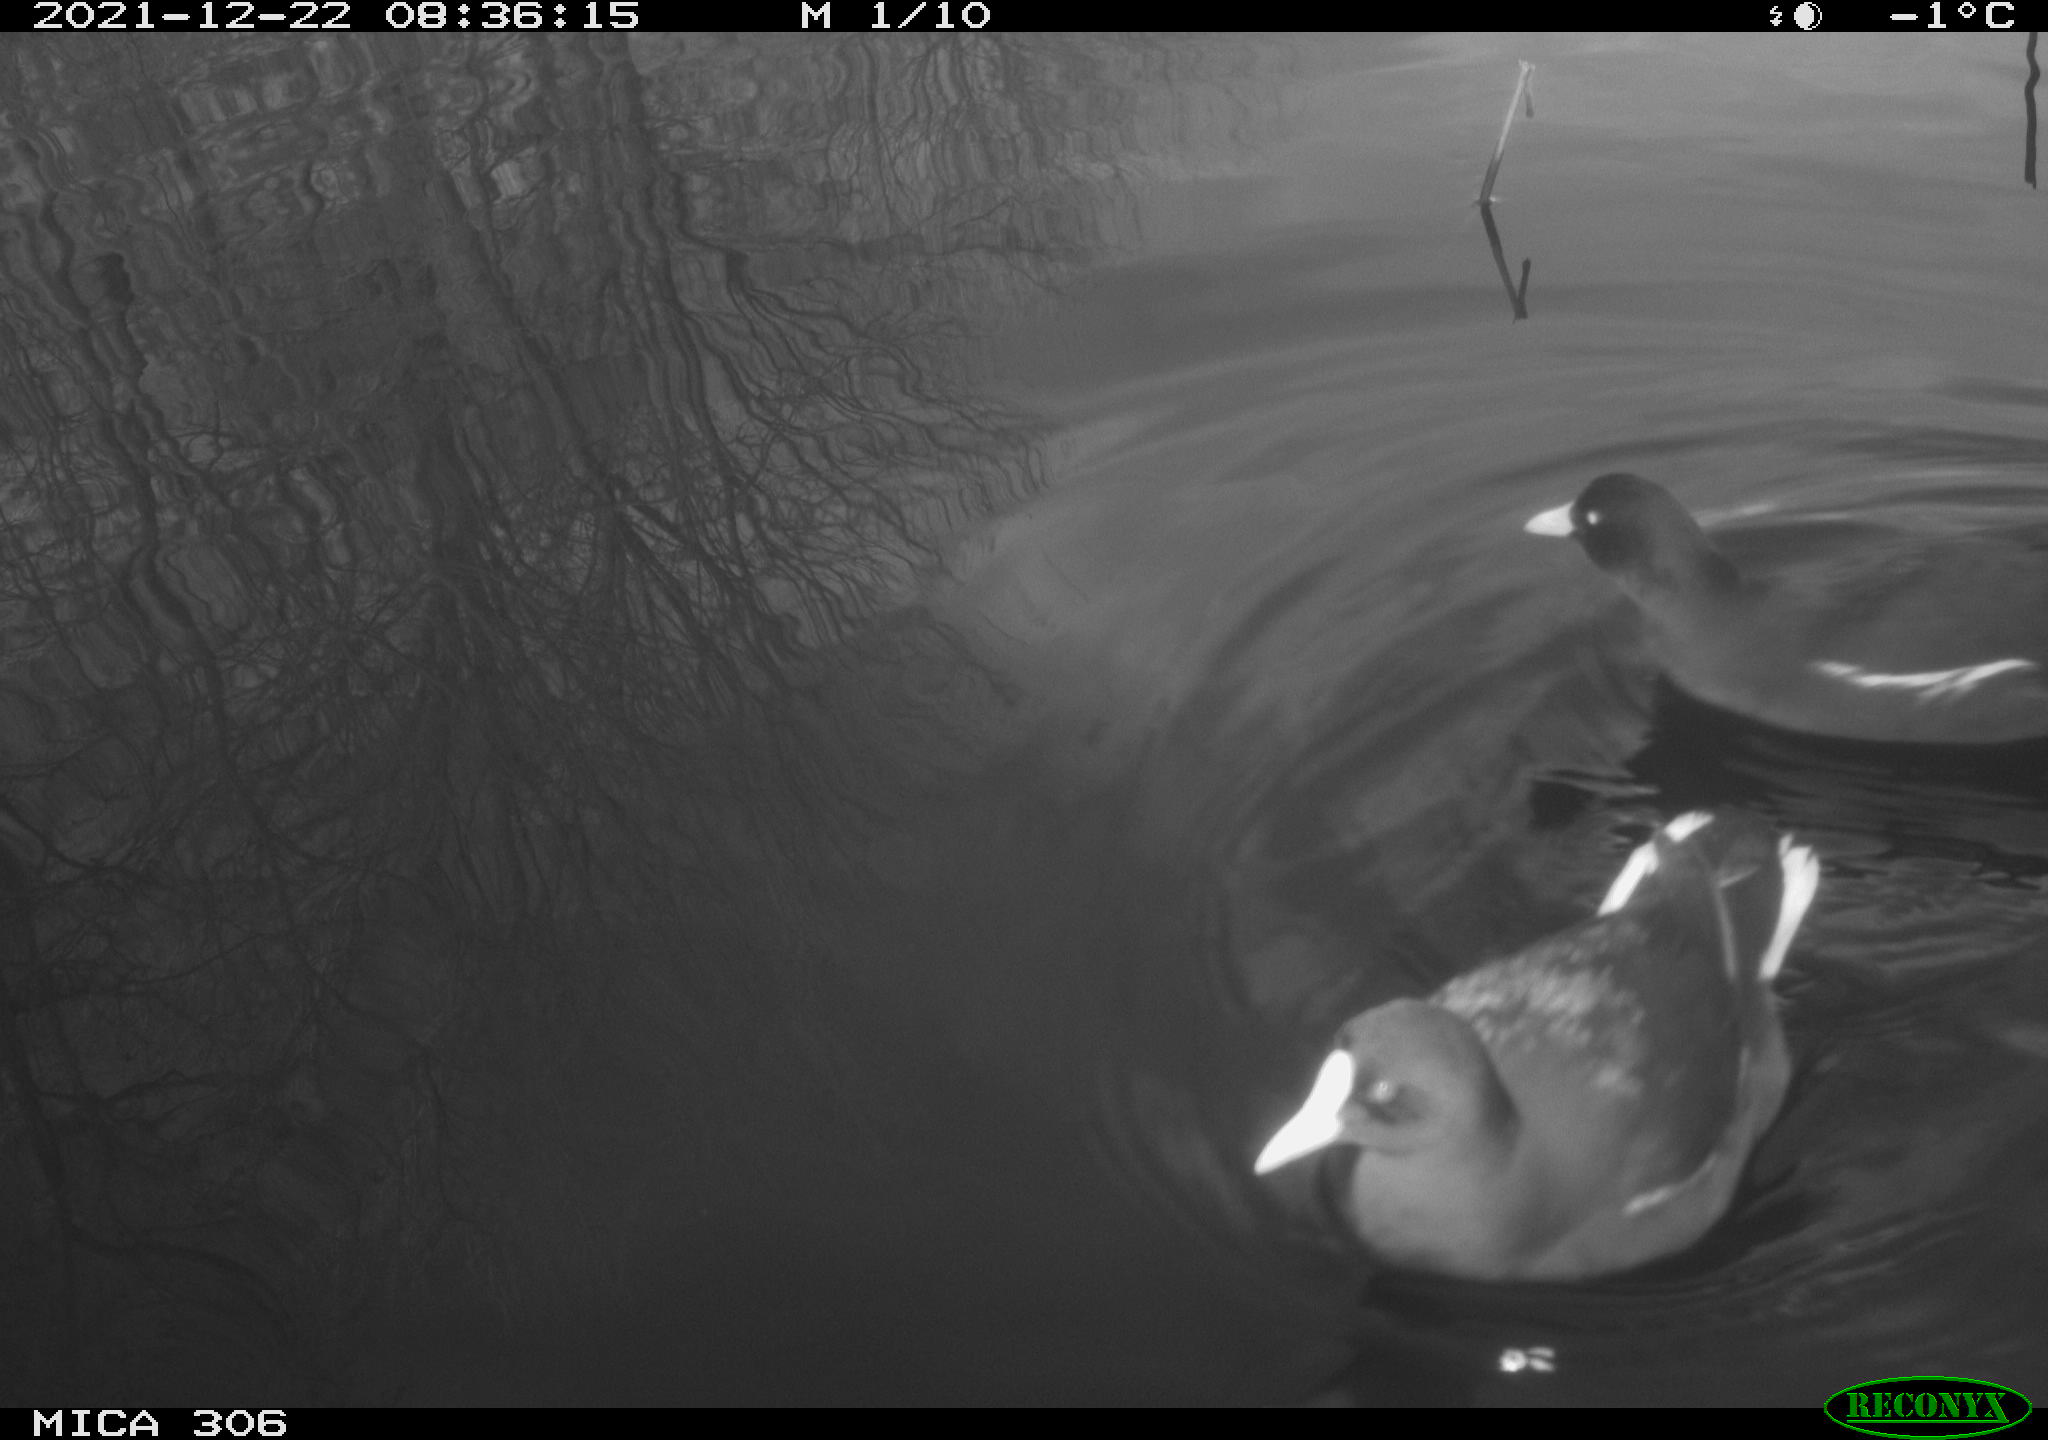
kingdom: Animalia
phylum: Chordata
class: Aves
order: Gruiformes
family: Rallidae
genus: Gallinula
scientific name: Gallinula chloropus
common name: Common moorhen
